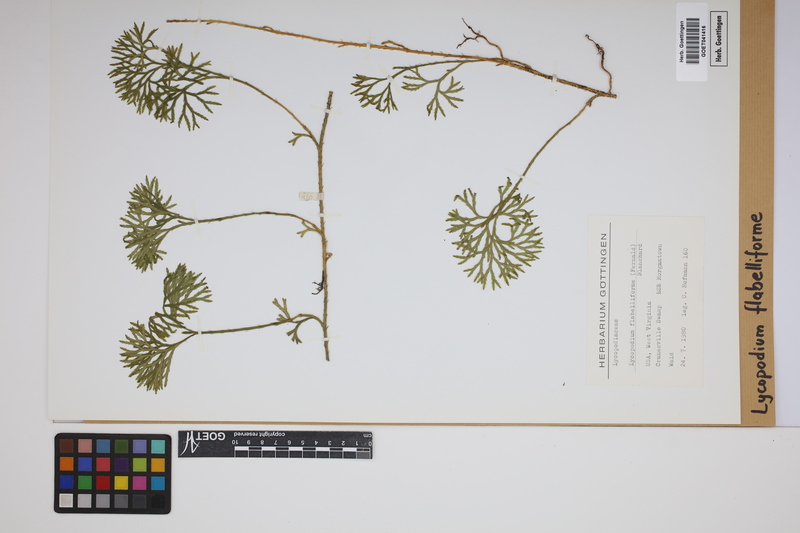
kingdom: Plantae
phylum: Tracheophyta
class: Lycopodiopsida
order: Lycopodiales
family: Lycopodiaceae
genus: Diphasiastrum
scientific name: Diphasiastrum digitatum
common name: Southern running-pine
